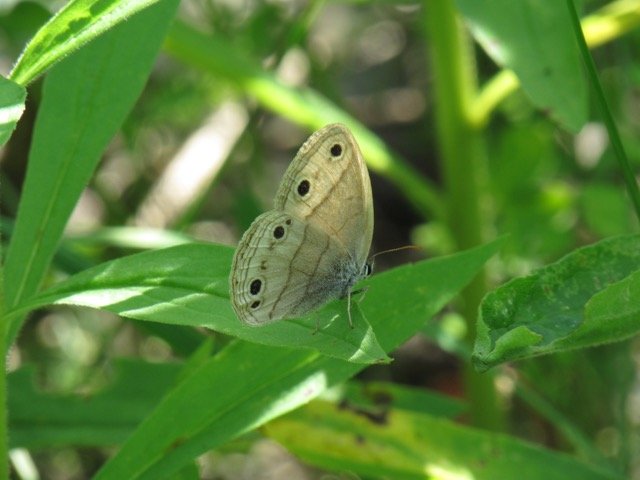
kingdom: Animalia
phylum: Arthropoda
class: Insecta
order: Lepidoptera
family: Nymphalidae
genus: Euptychia
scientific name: Euptychia cymela
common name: Little Wood Satyr
